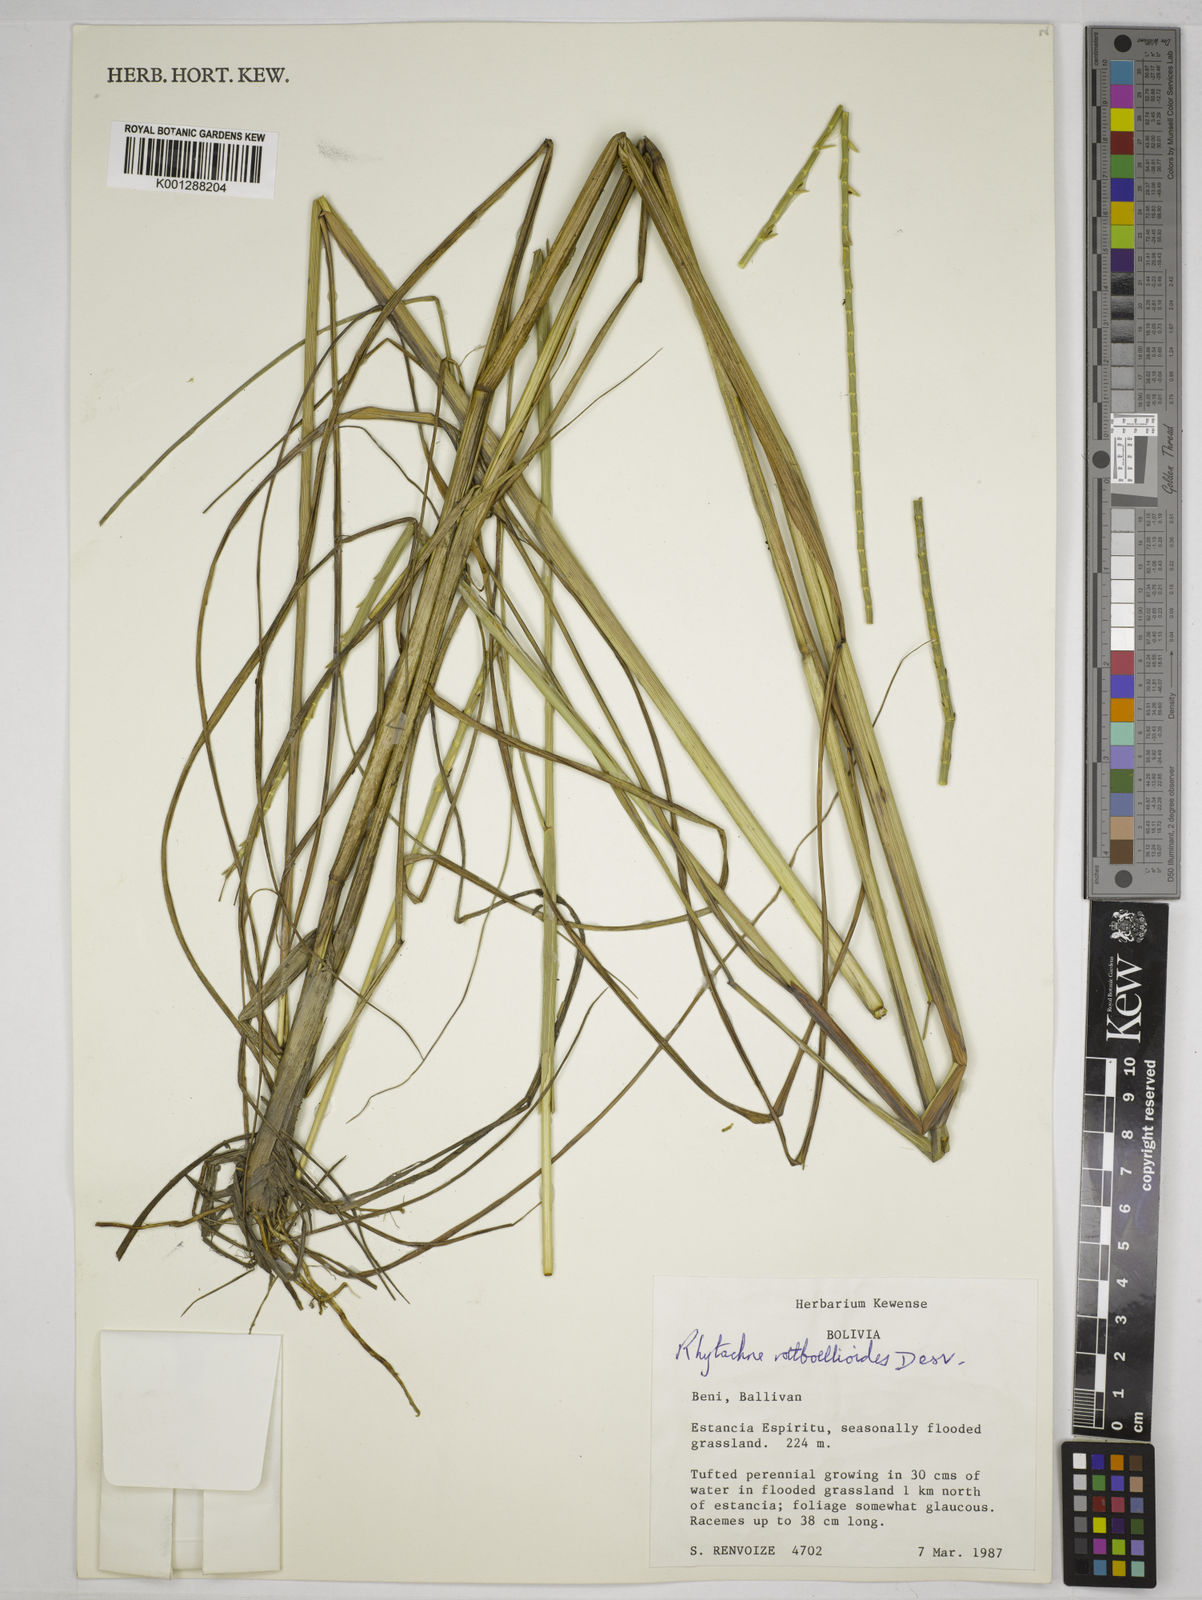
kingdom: Plantae
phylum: Tracheophyta
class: Liliopsida
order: Poales
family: Poaceae
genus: Rhytachne
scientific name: Rhytachne rottboellioides
